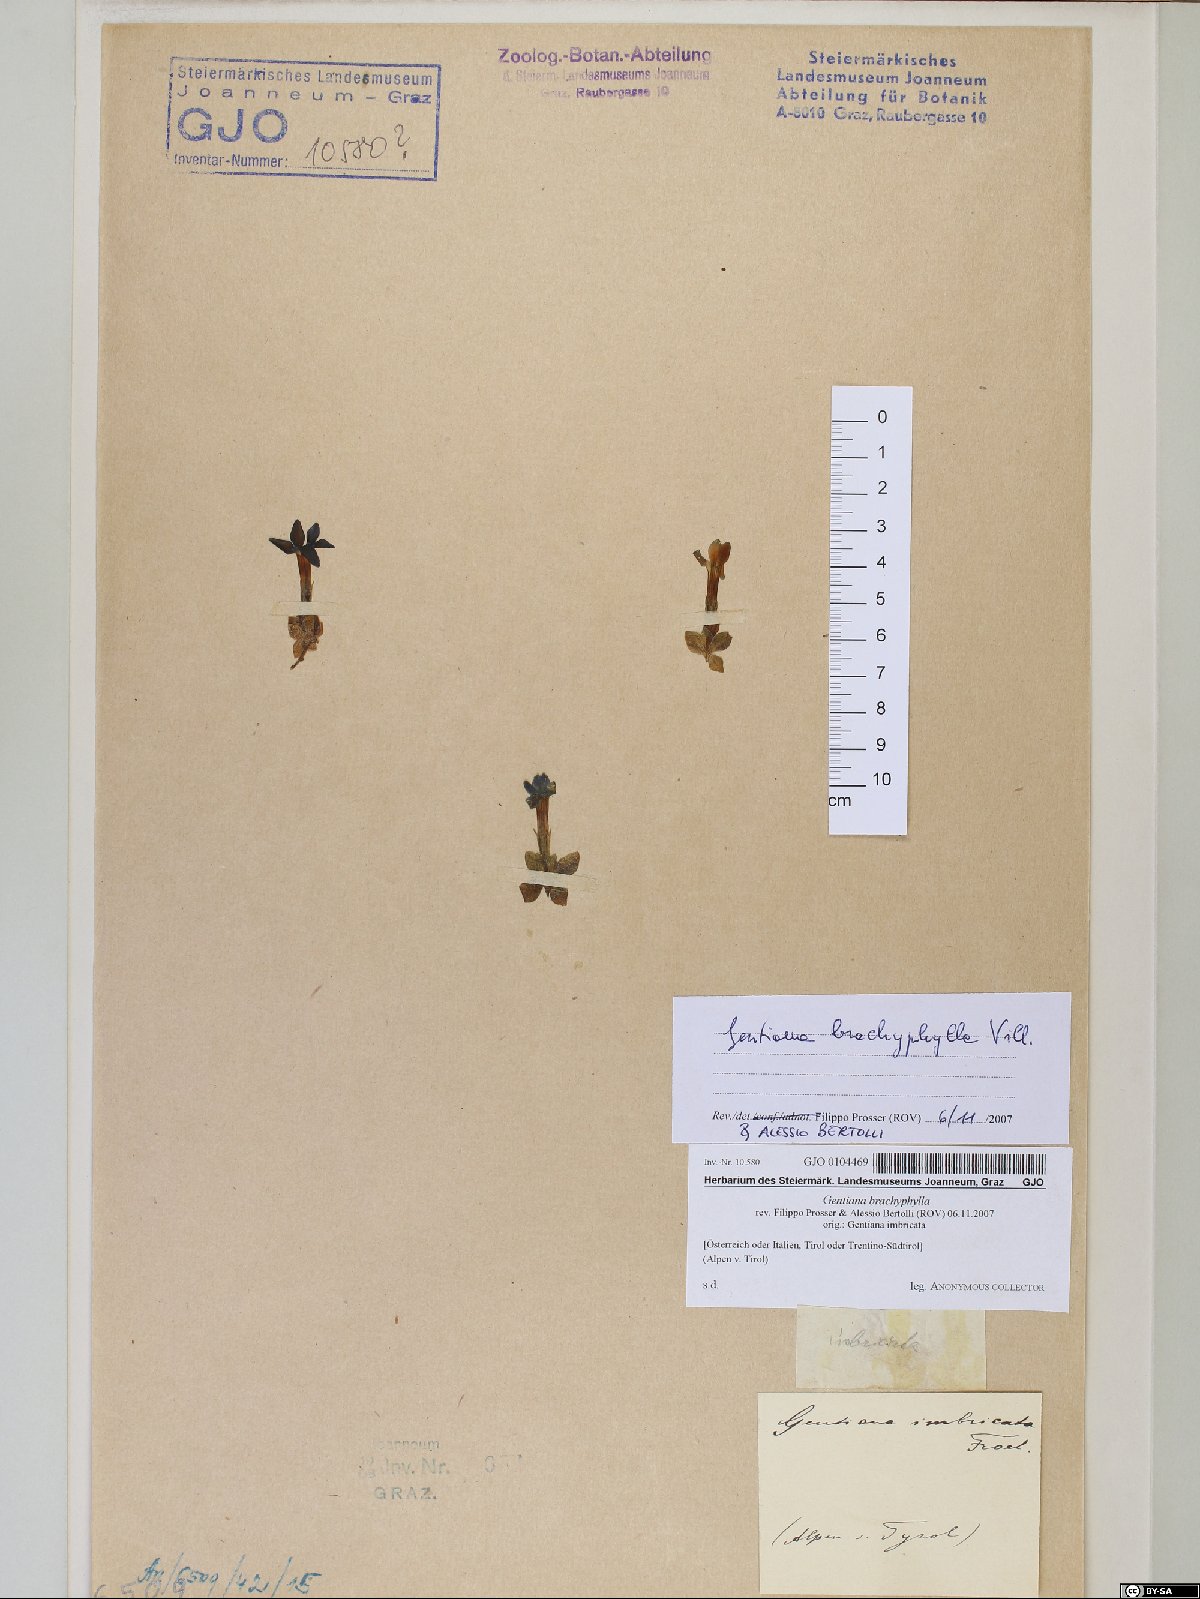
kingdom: Plantae
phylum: Tracheophyta
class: Magnoliopsida
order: Gentianales
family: Gentianaceae
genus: Gentiana
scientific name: Gentiana brachyphylla
